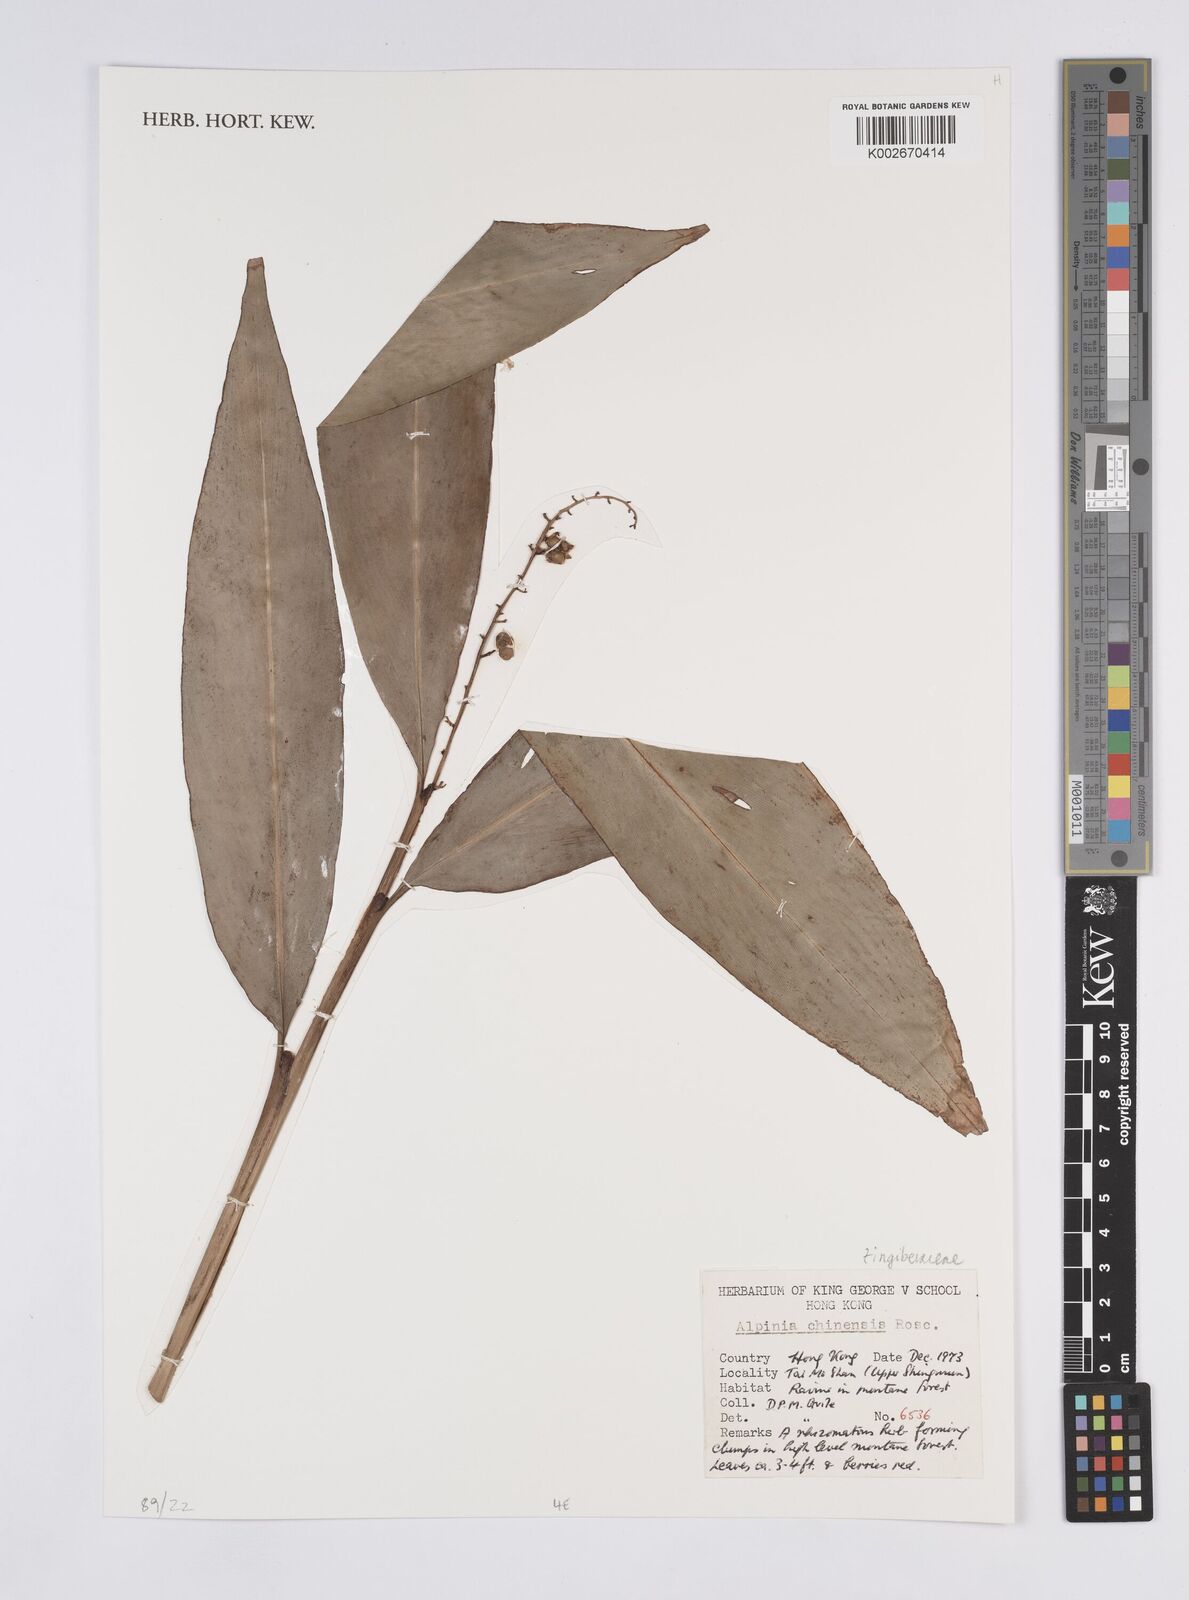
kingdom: Plantae
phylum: Tracheophyta
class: Liliopsida
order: Zingiberales
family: Zingiberaceae
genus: Alpinia
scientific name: Alpinia chinensis
